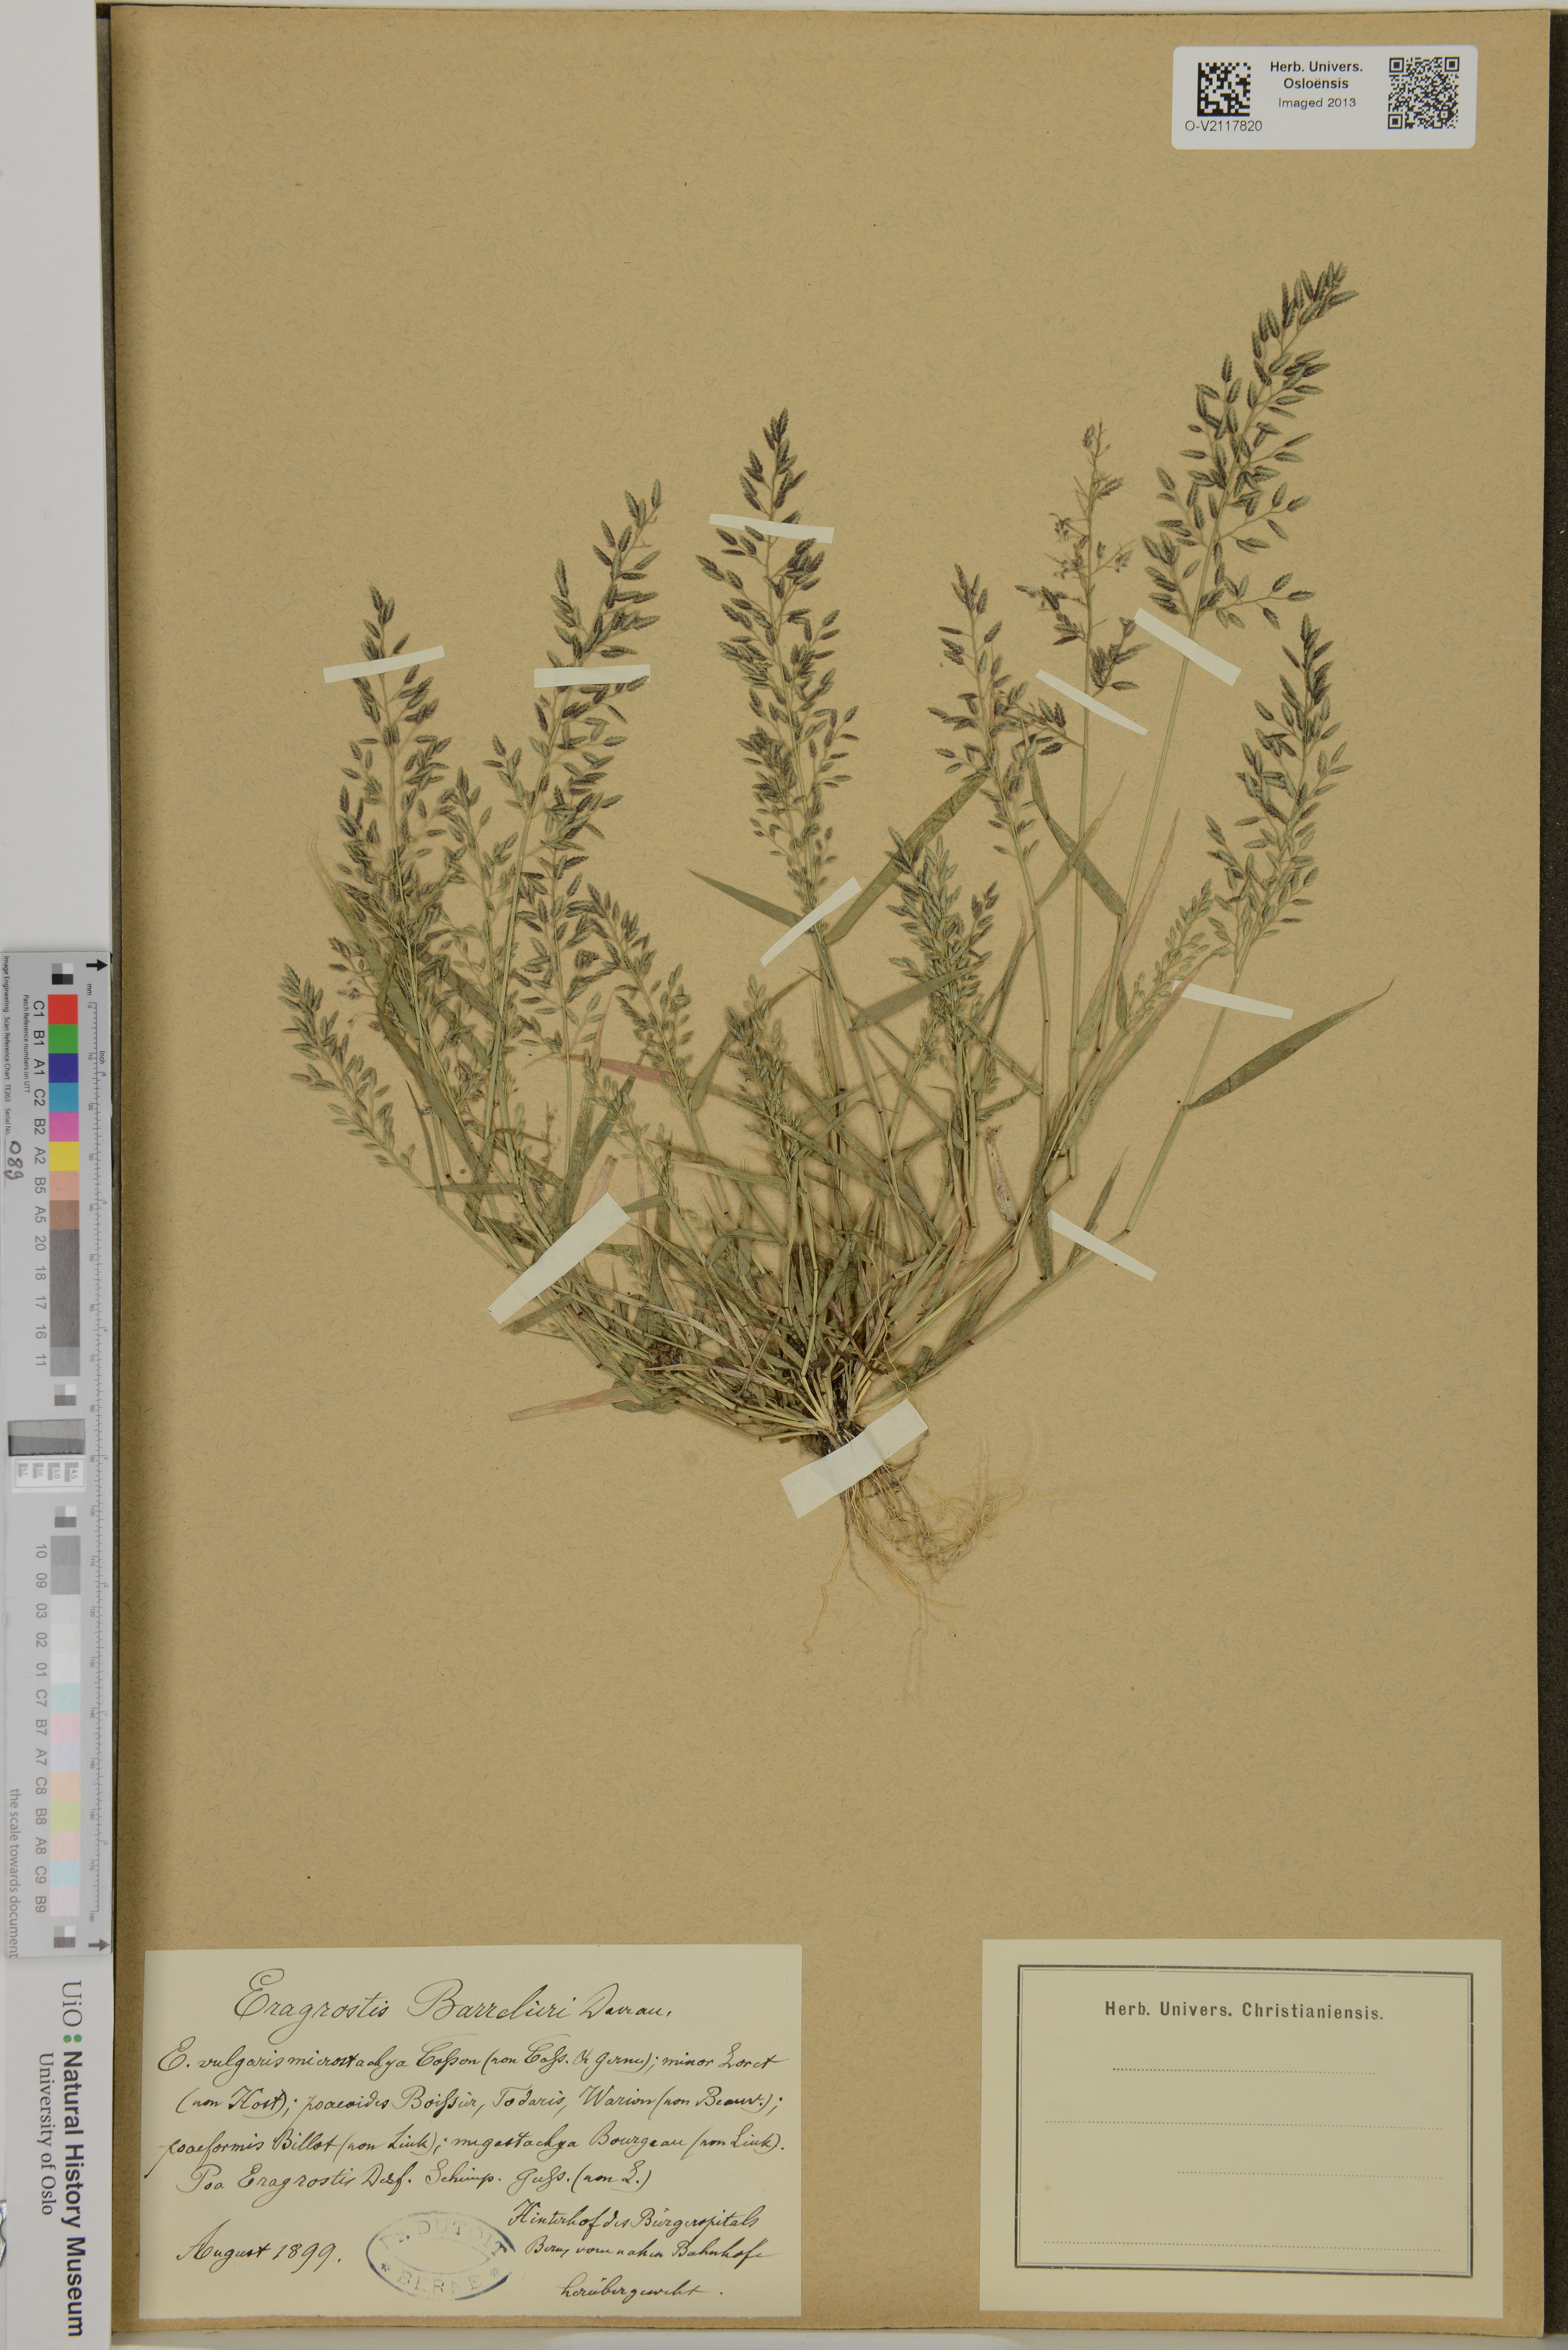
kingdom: Plantae
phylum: Tracheophyta
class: Liliopsida
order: Poales
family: Poaceae
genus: Eragrostis
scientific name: Eragrostis barrelieri
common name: Mediterranean lovegrass
